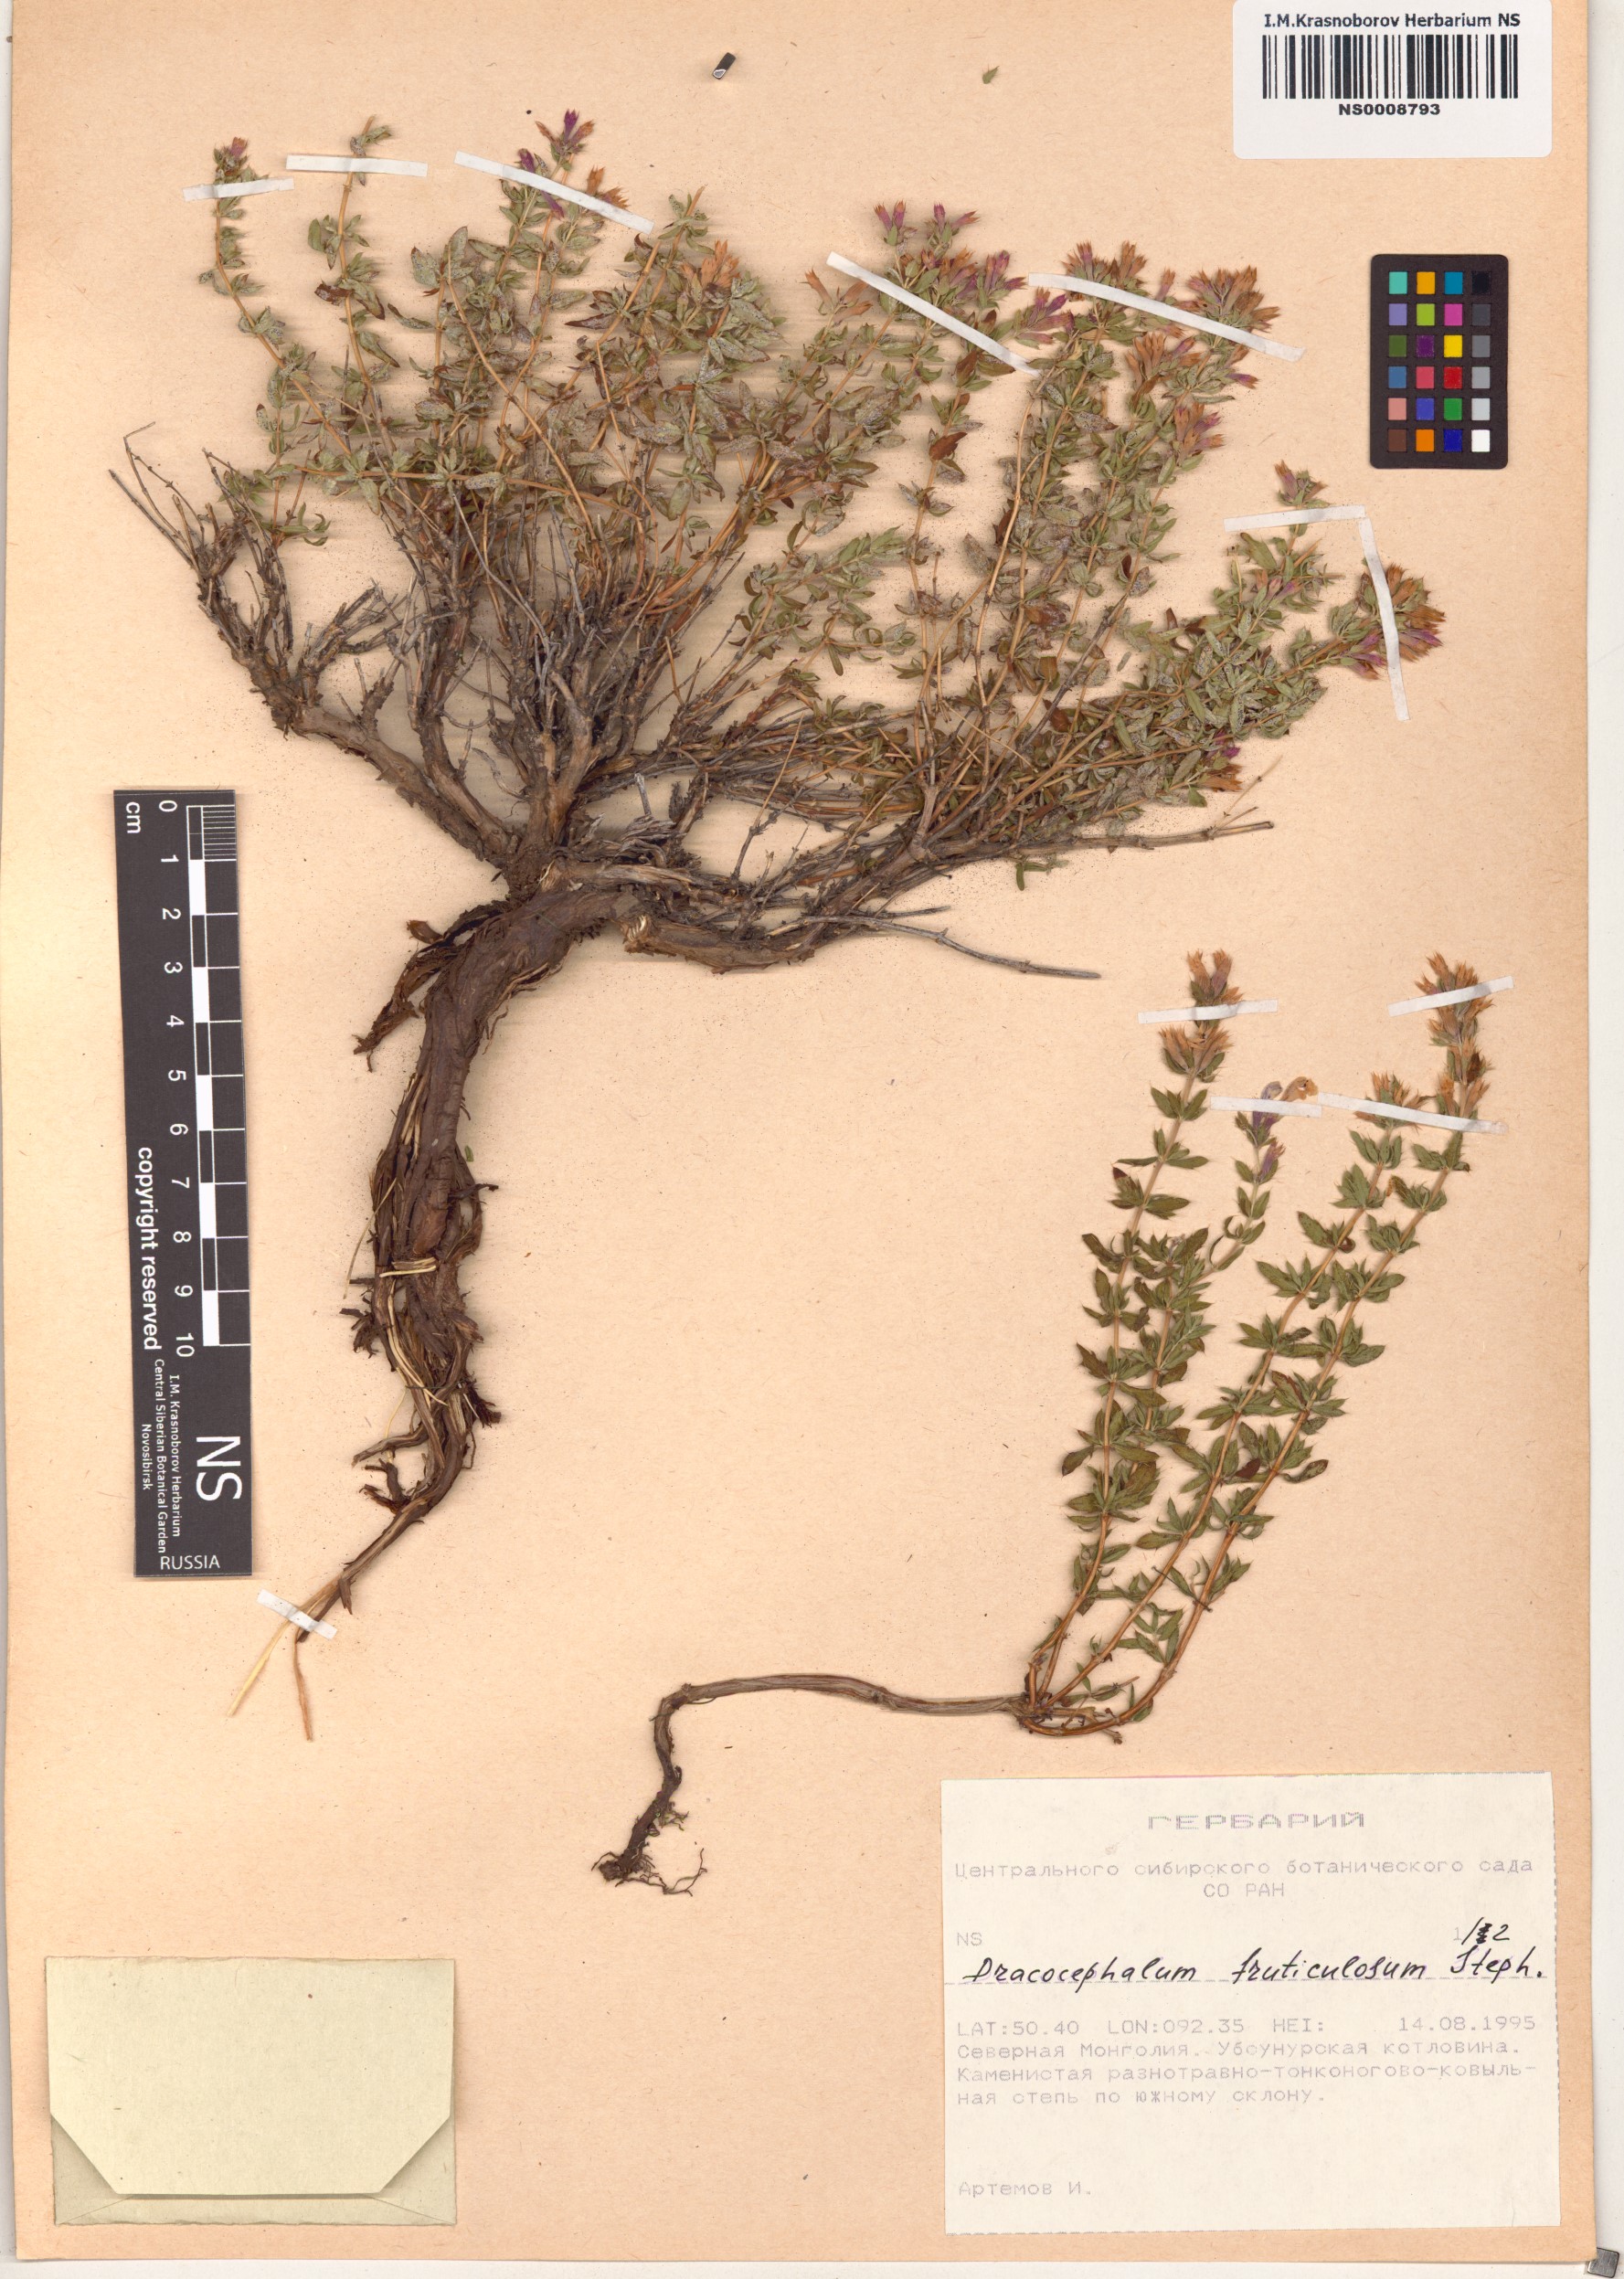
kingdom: Plantae
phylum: Tracheophyta
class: Magnoliopsida
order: Lamiales
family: Lamiaceae
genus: Dracocephalum
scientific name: Dracocephalum fruticulosum
